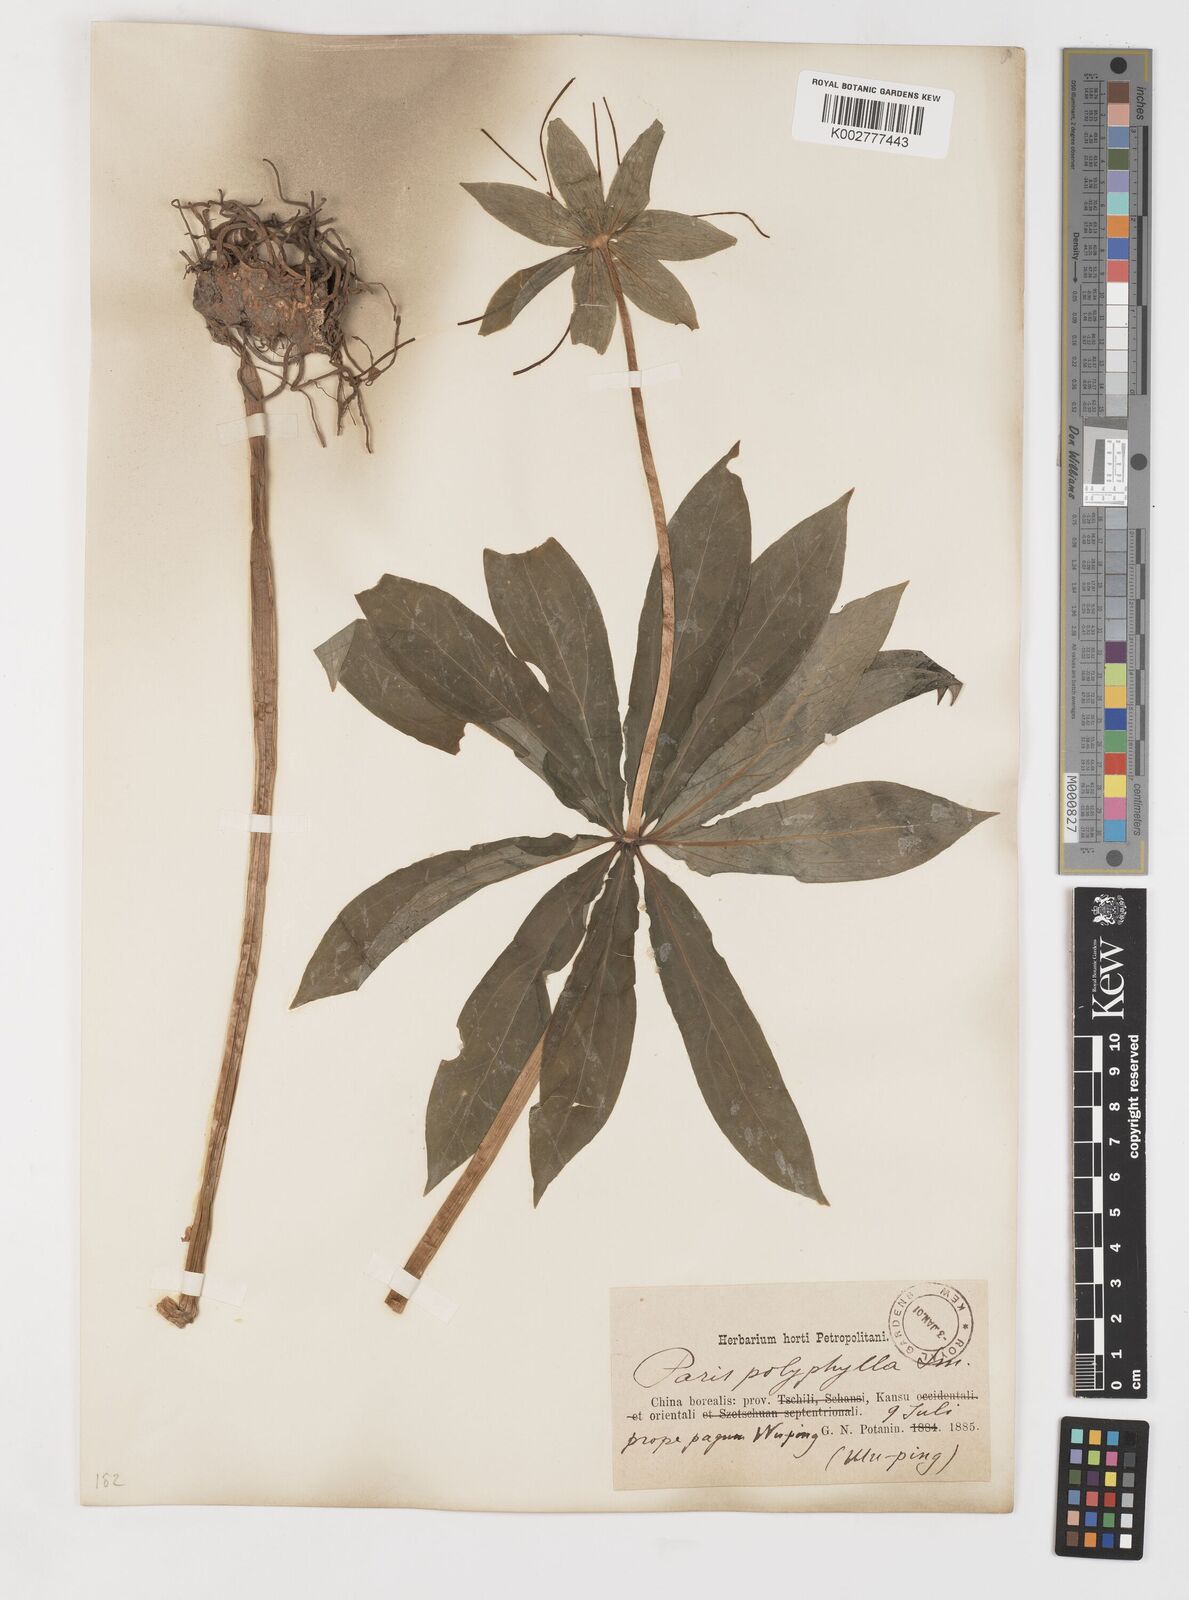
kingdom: Plantae
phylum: Tracheophyta
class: Liliopsida
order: Liliales
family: Melanthiaceae
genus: Paris
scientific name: Paris polyphylla
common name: Love apple
